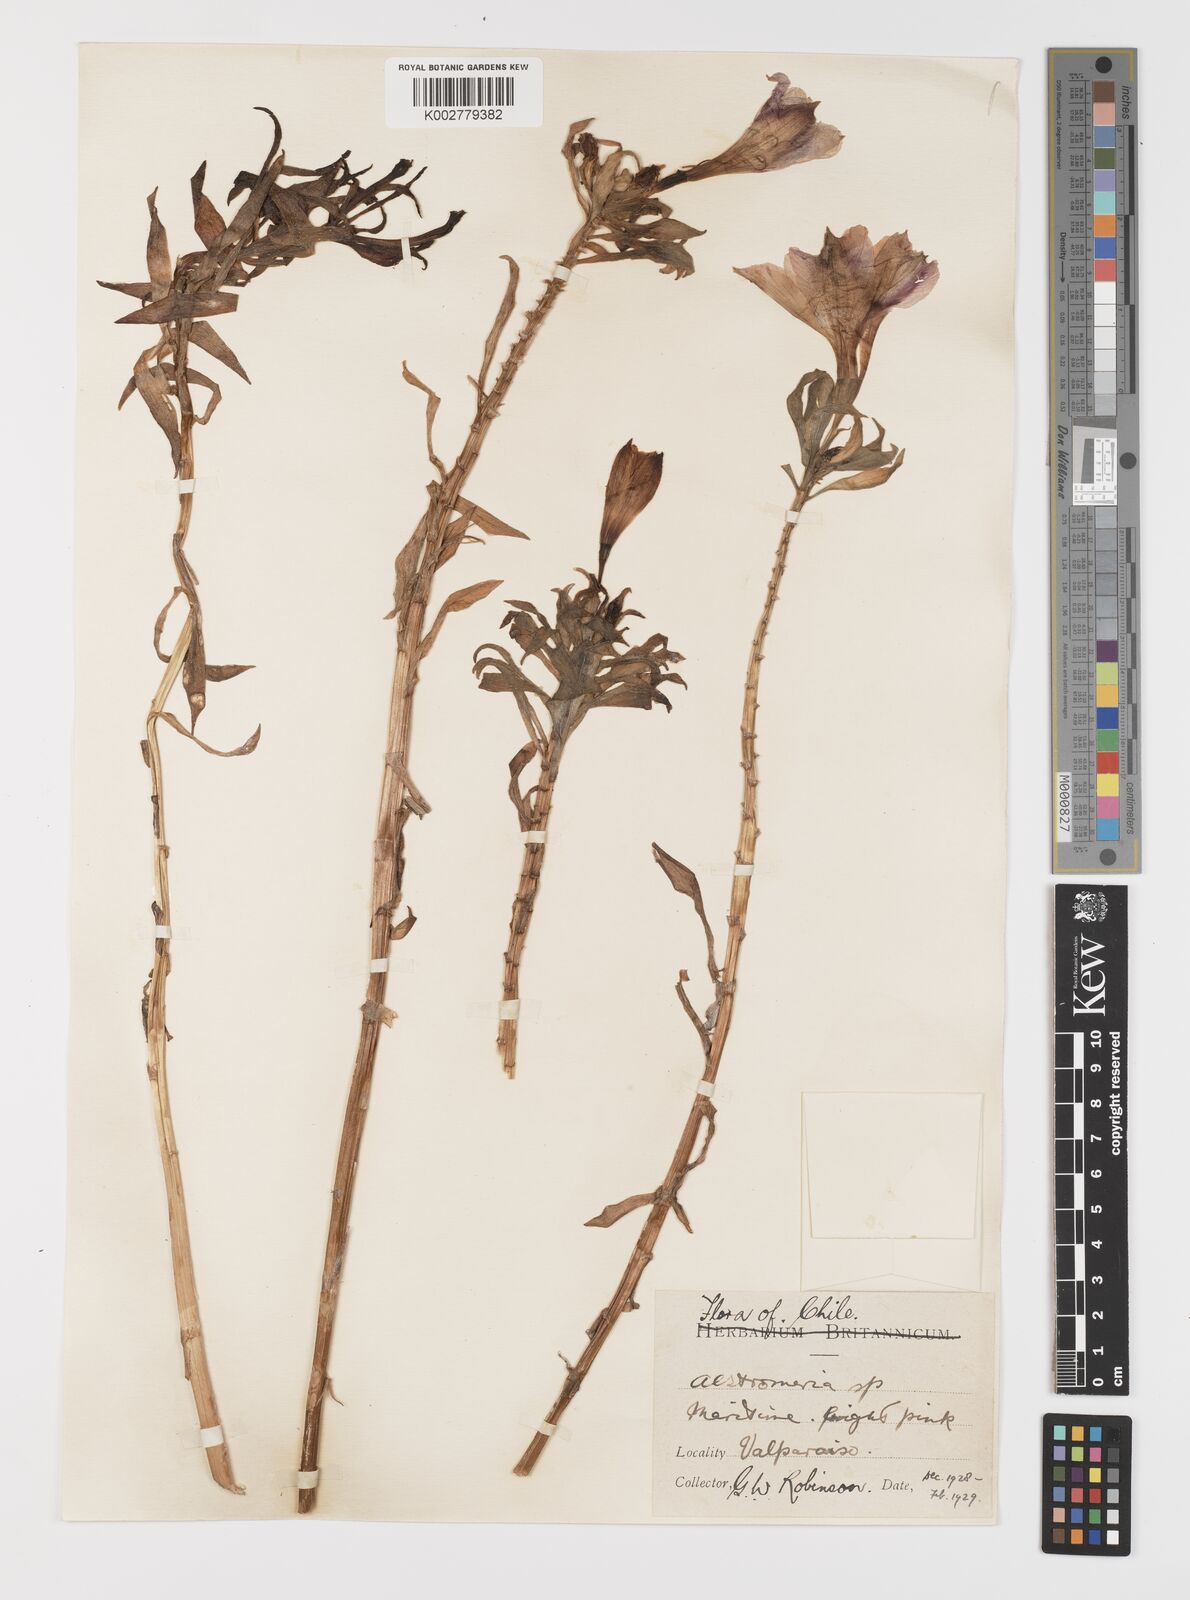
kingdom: Plantae
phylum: Tracheophyta
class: Liliopsida
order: Liliales
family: Alstroemeriaceae
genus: Alstroemeria
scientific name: Alstroemeria pelegrina
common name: Peruvian-lily
